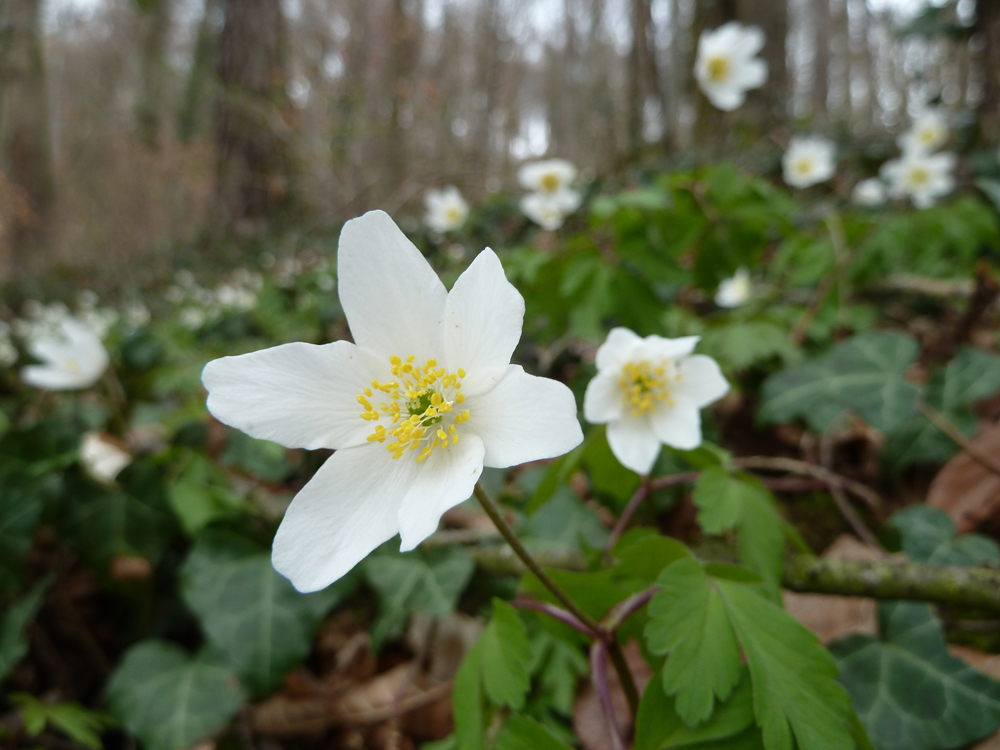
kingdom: Plantae
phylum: Tracheophyta
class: Magnoliopsida
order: Ranunculales
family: Ranunculaceae
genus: Anemone
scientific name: Anemone nemorosa
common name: Wood anemone
